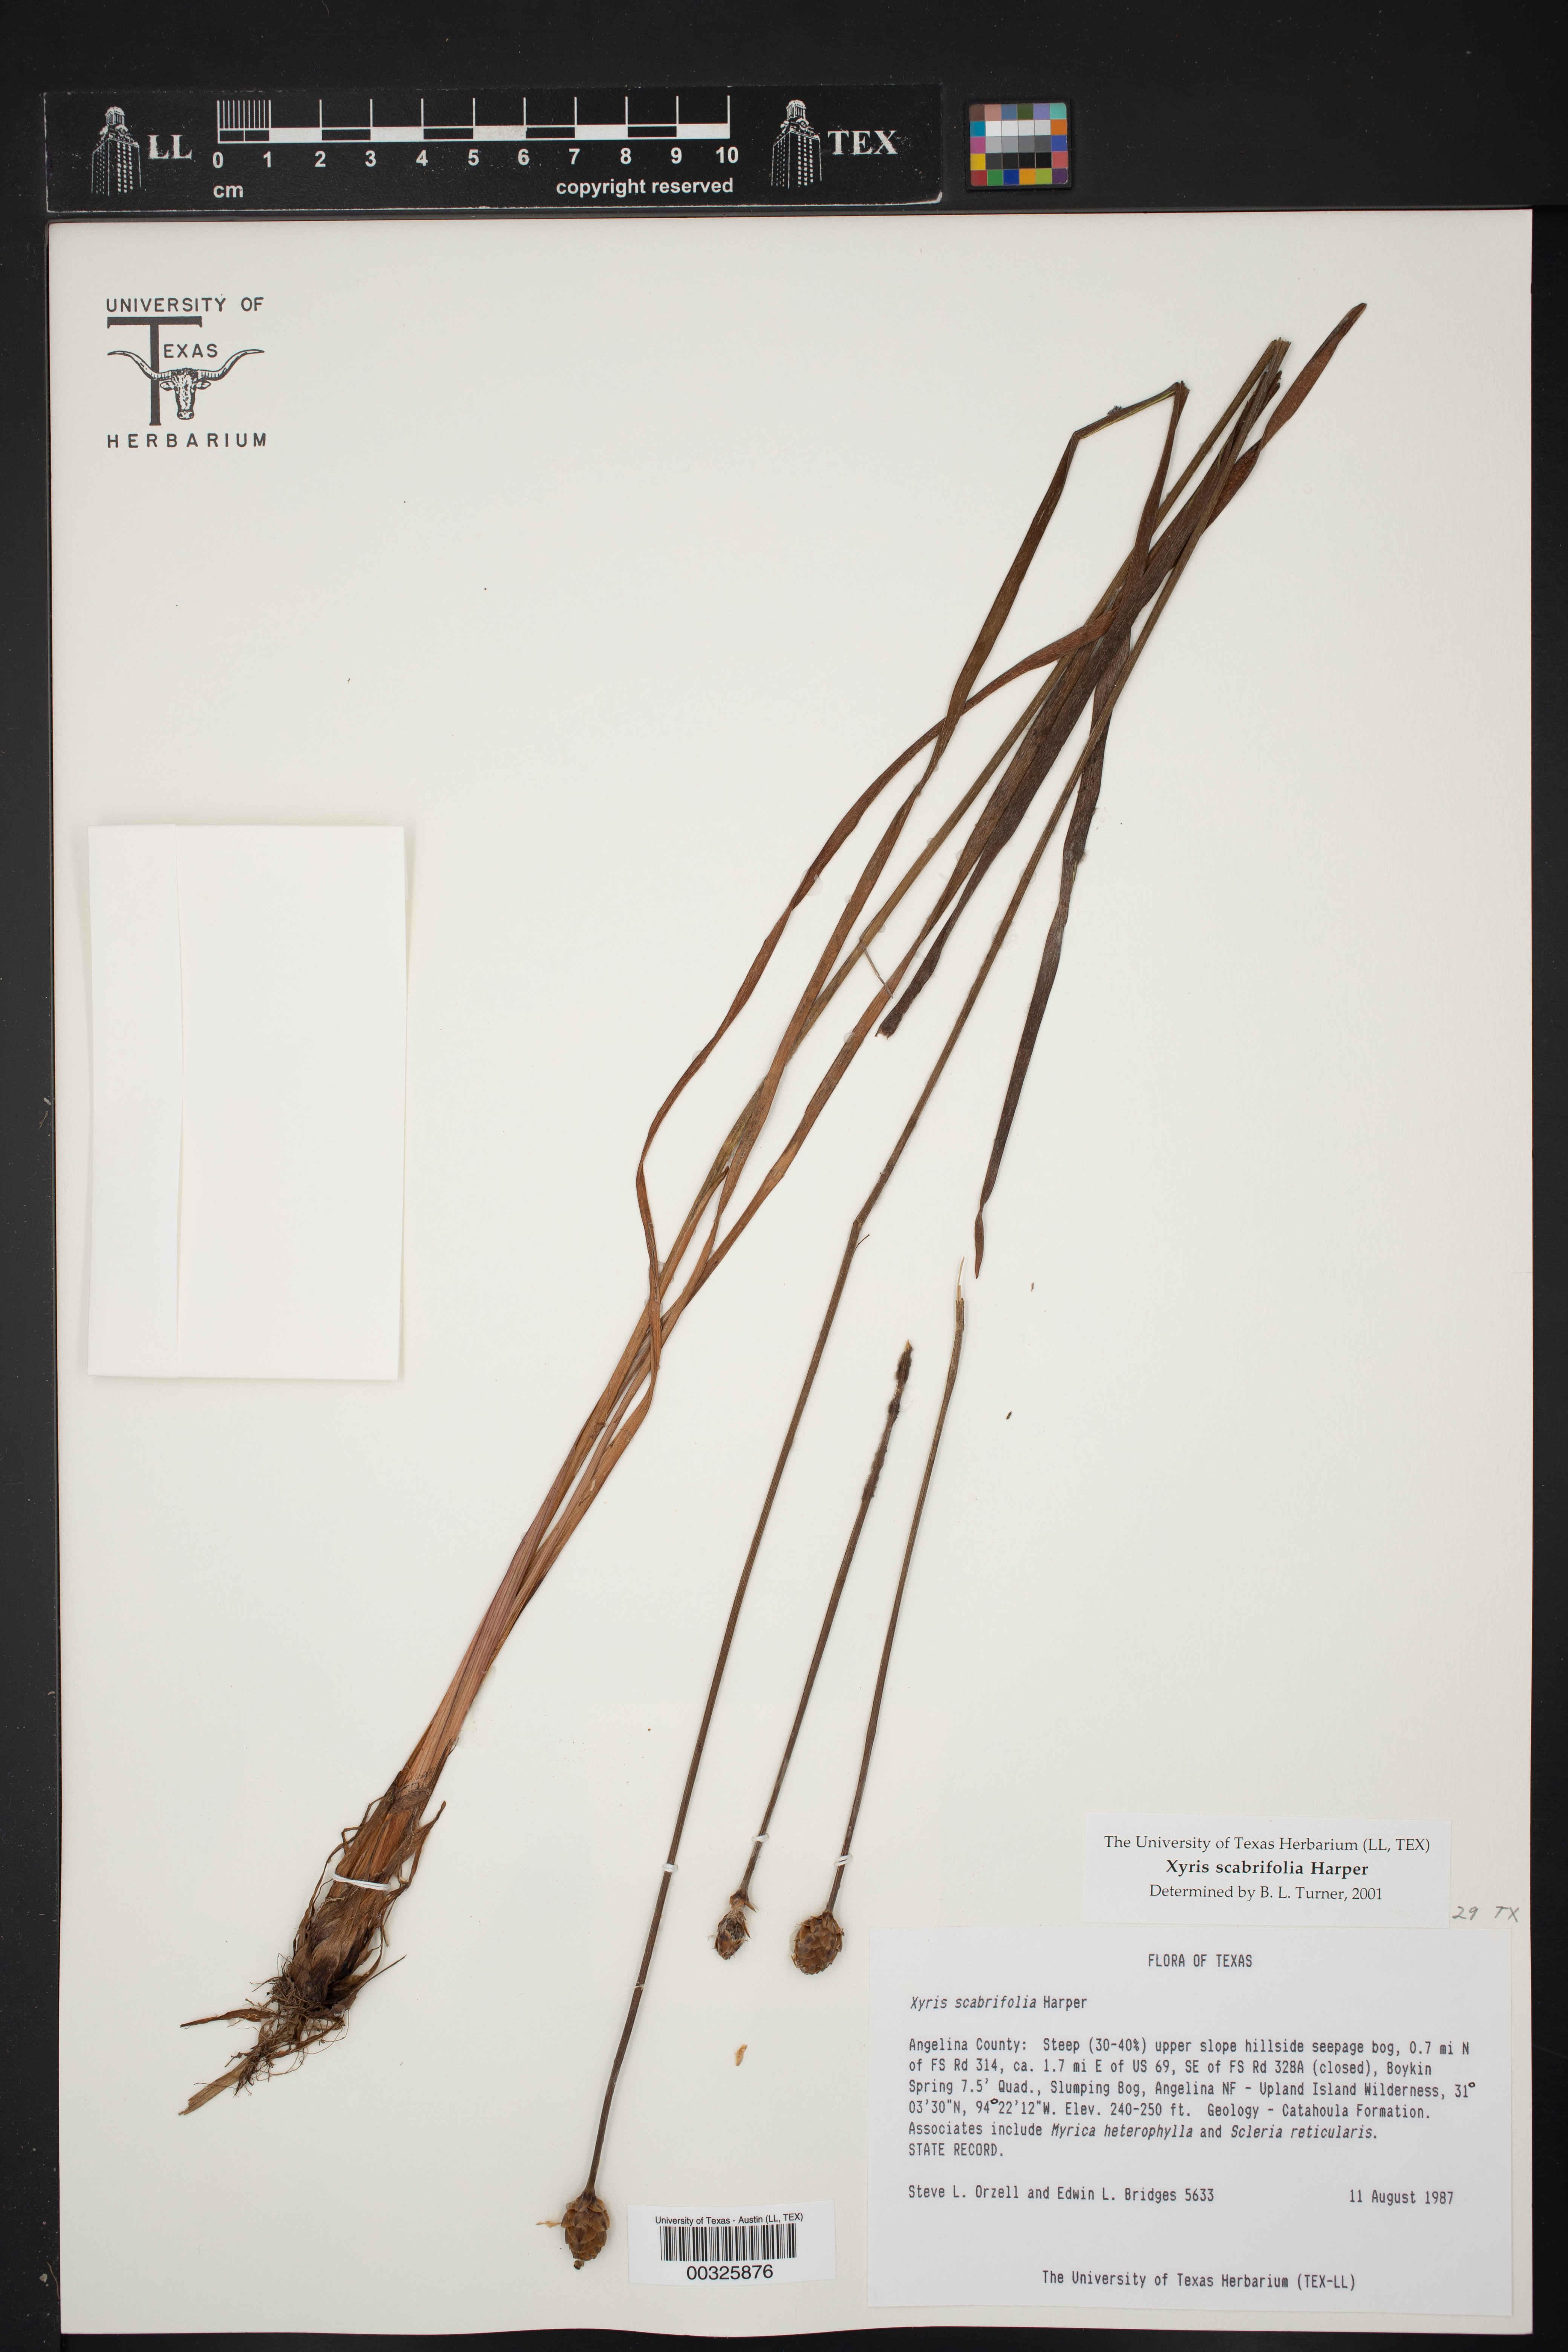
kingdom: Plantae
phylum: Tracheophyta
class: Liliopsida
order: Poales
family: Xyridaceae
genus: Xyris
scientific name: Xyris scabrifolia
